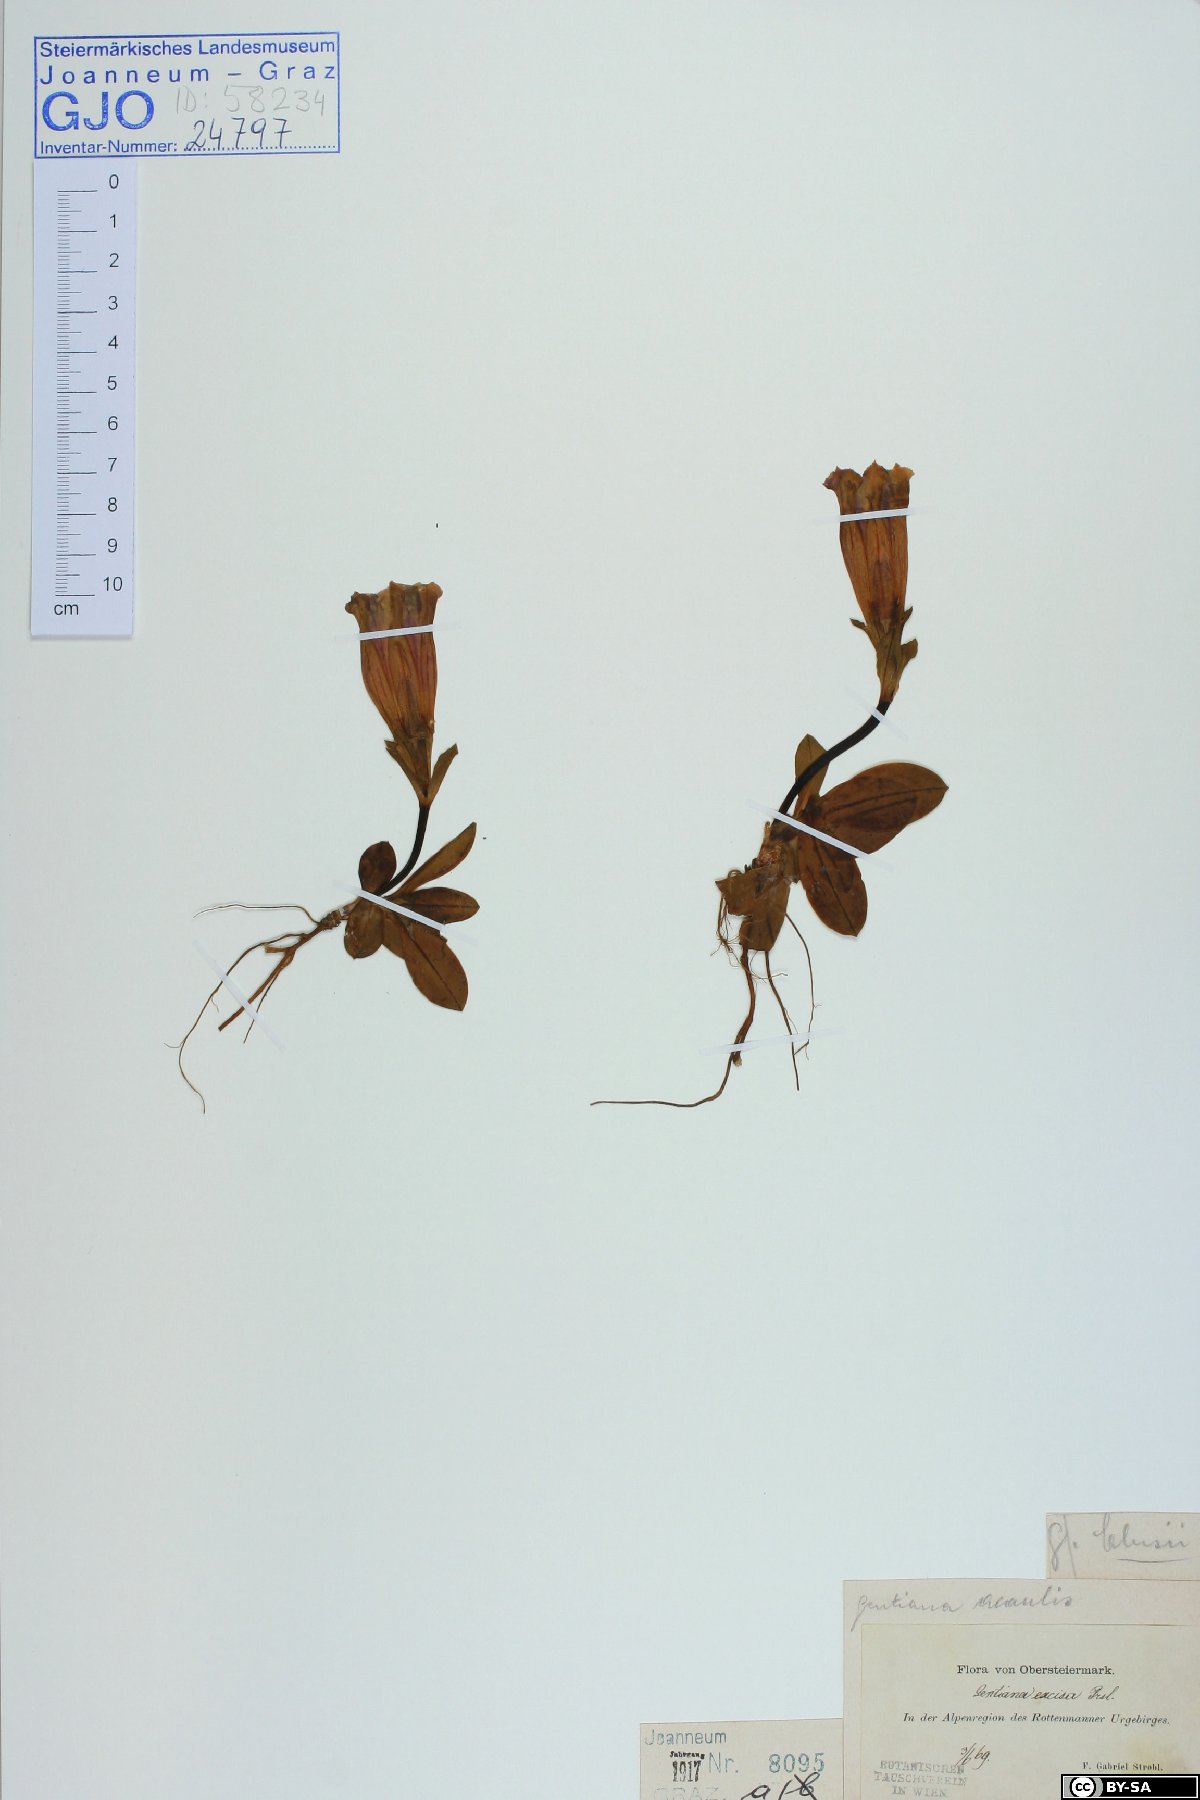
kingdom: Plantae
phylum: Tracheophyta
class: Magnoliopsida
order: Gentianales
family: Gentianaceae
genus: Gentiana
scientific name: Gentiana acaulis
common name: Trumpet gentian
